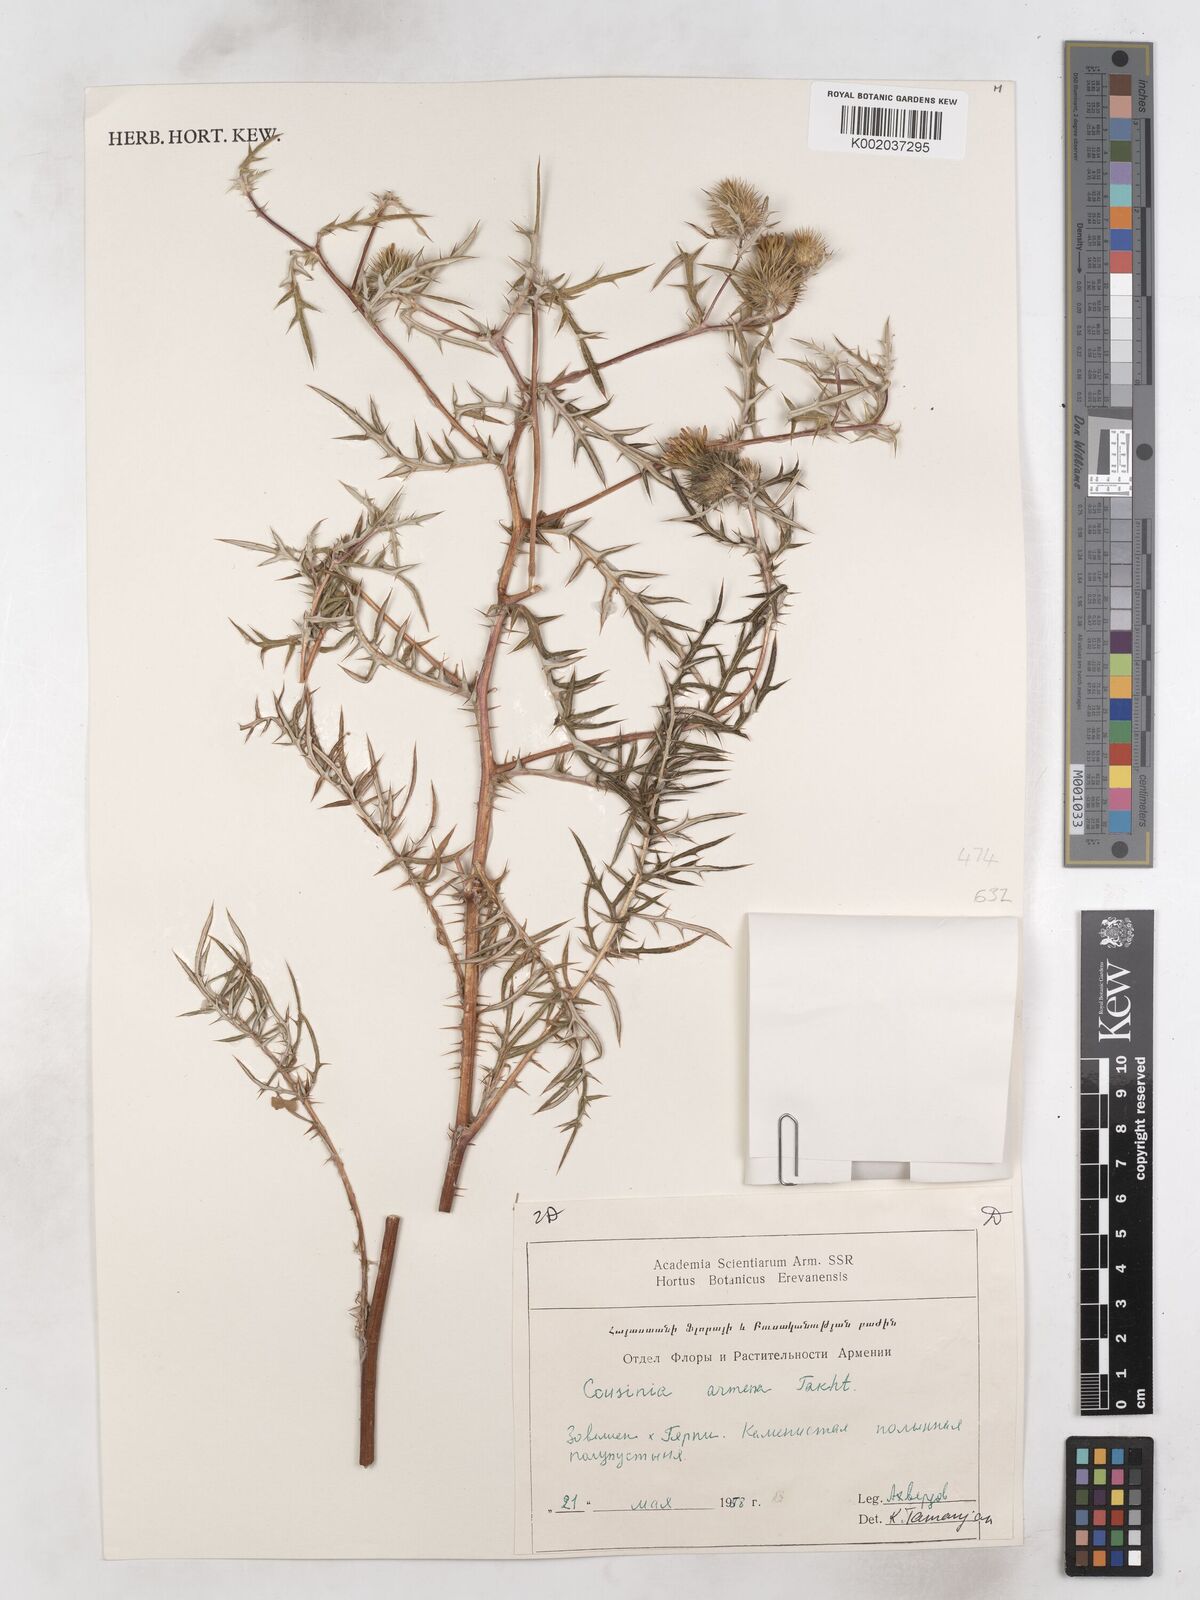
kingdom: Plantae
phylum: Tracheophyta
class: Magnoliopsida
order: Asterales
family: Asteraceae
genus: Cousinia
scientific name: Cousinia armena
